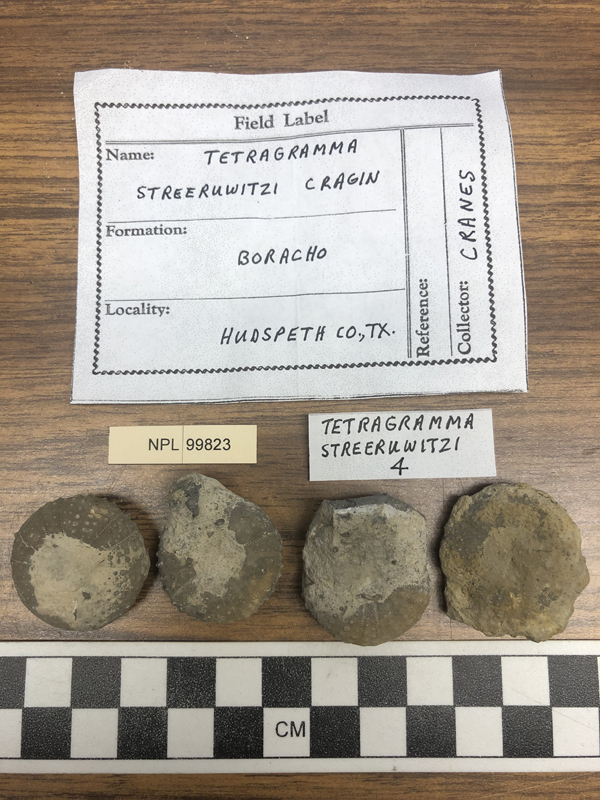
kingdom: Animalia
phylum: Echinodermata
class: Echinoidea
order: Phymosomatoida
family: Diplopodiidae
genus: Tetragramma
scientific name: Tetragramma
